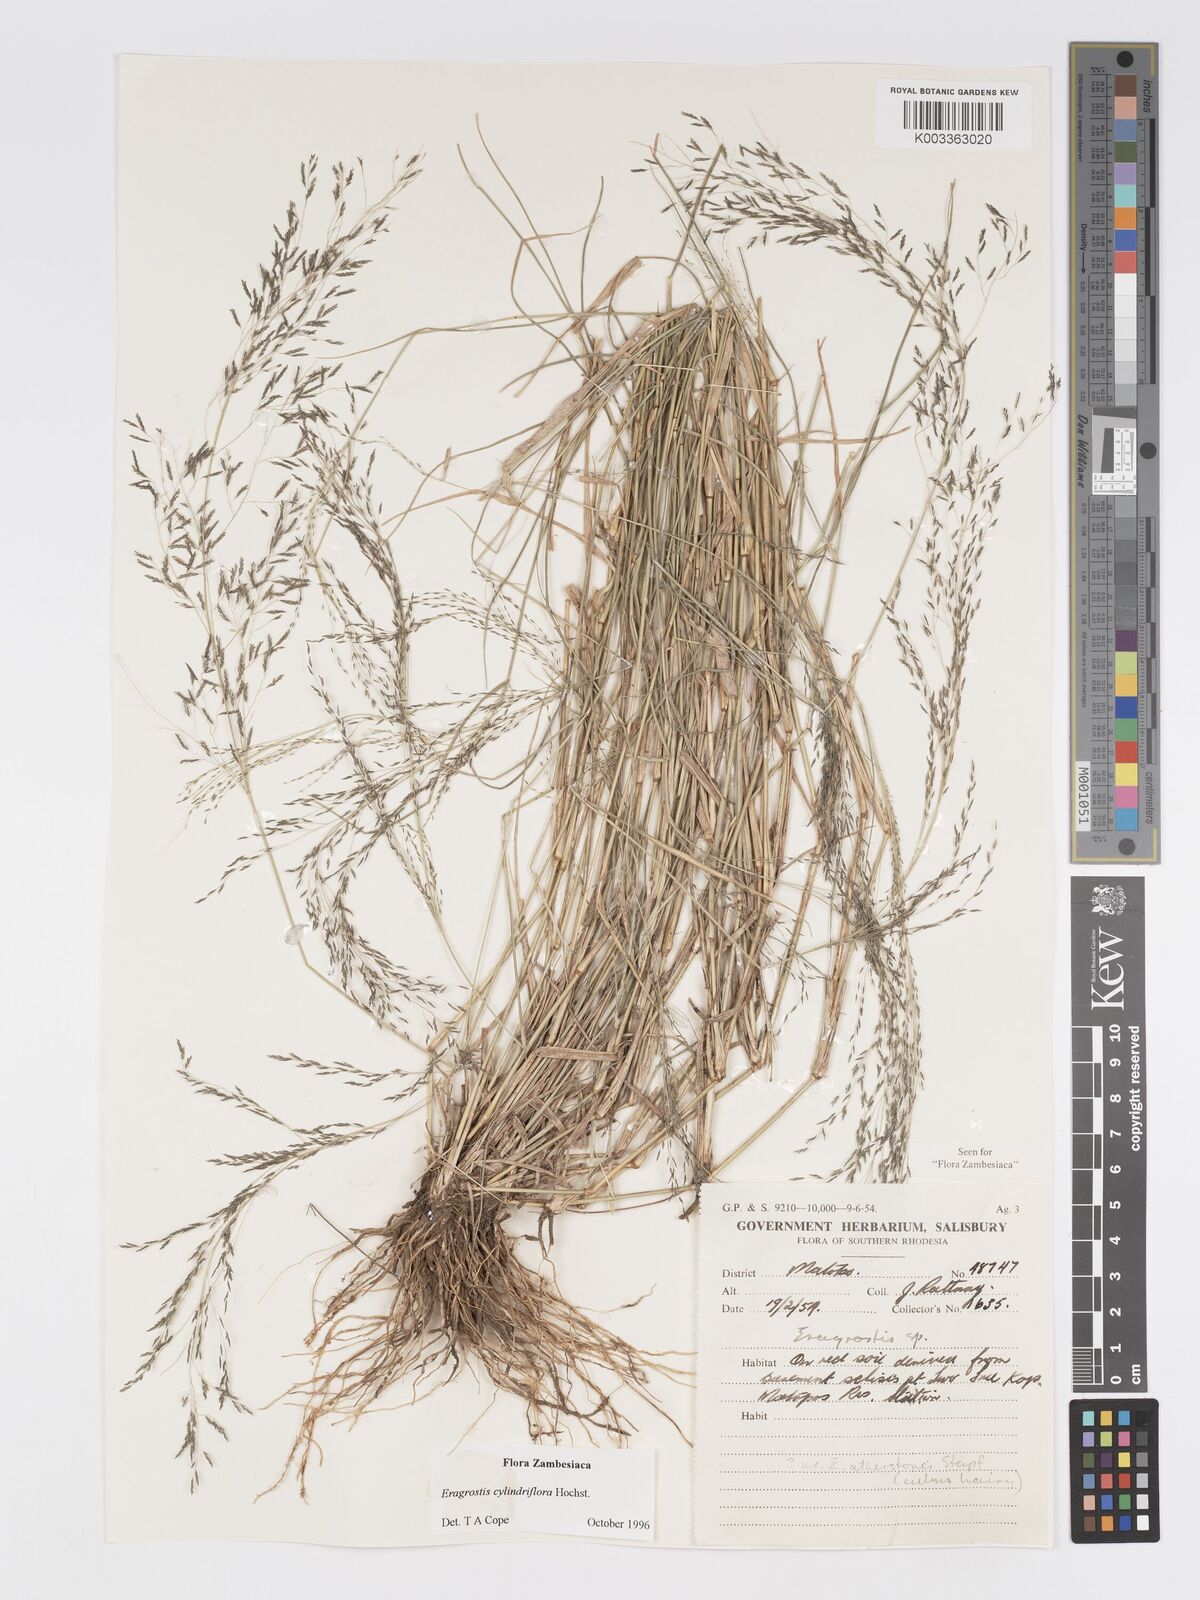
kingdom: Plantae
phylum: Tracheophyta
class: Liliopsida
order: Poales
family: Poaceae
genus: Eragrostis
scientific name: Eragrostis cylindriflora
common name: Cylinderflower lovegrass
